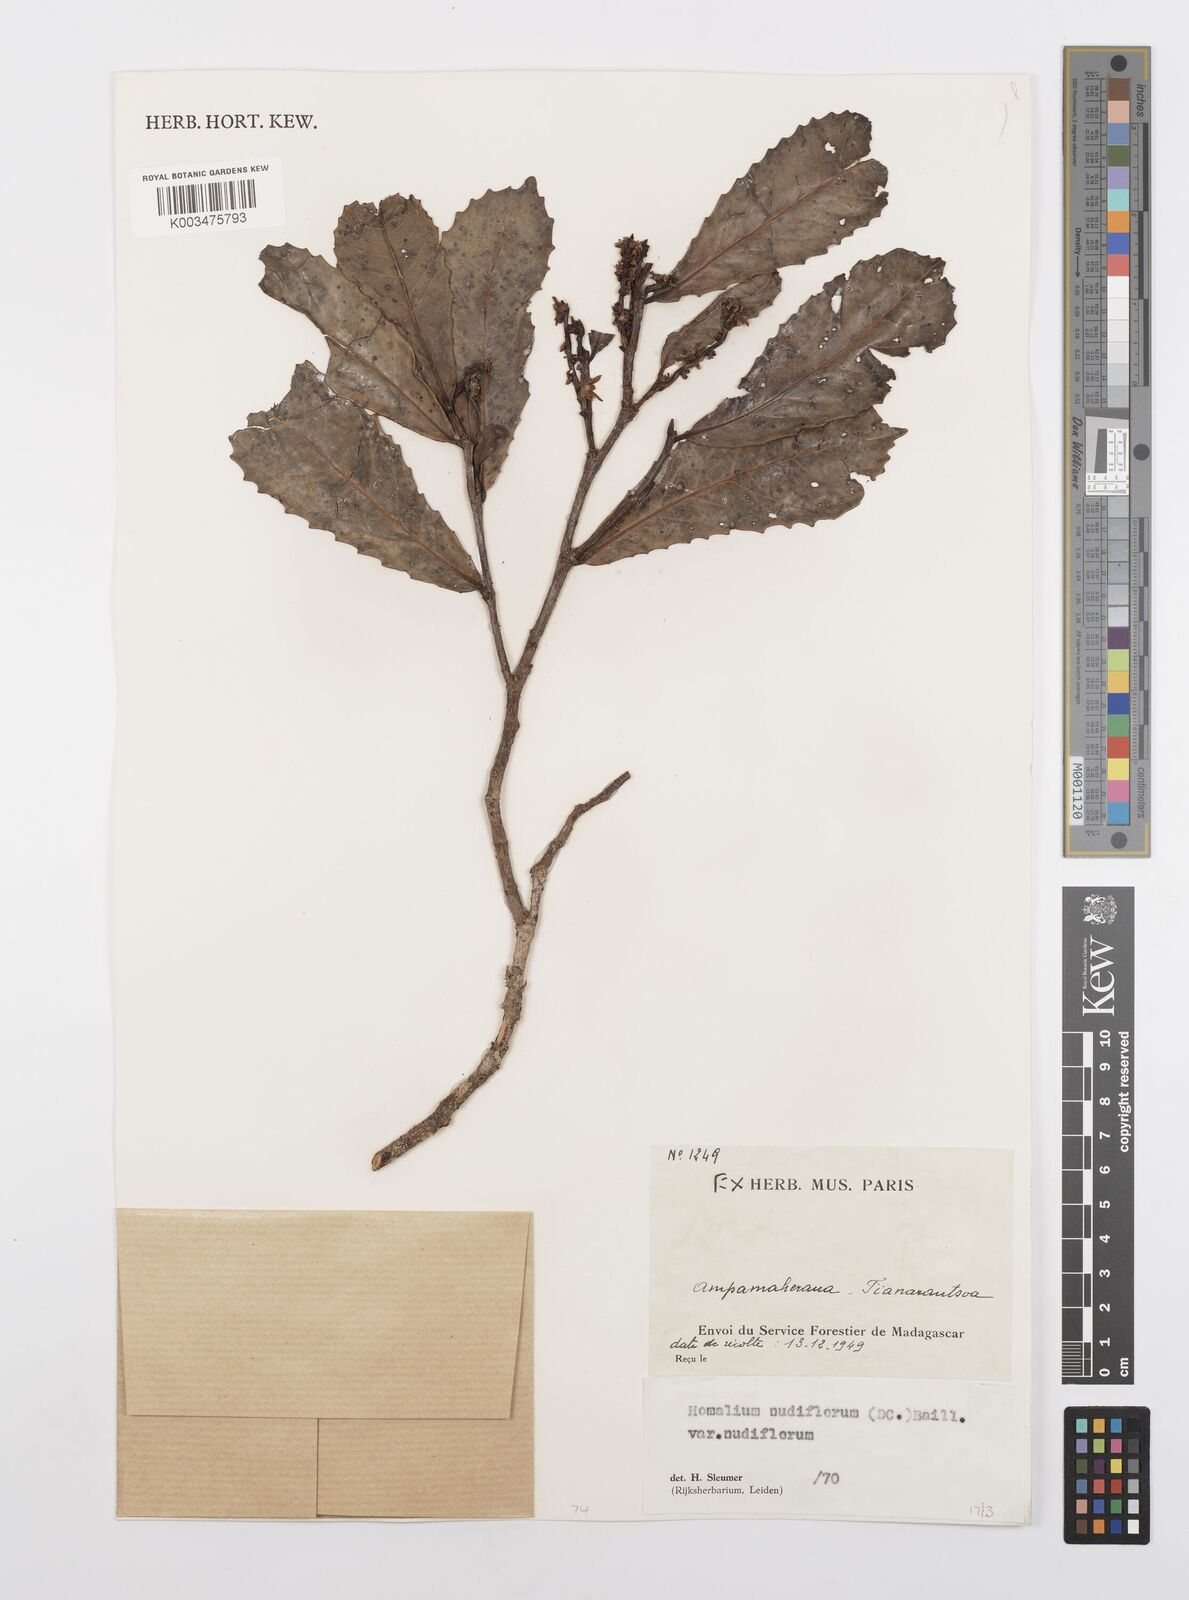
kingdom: Plantae
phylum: Tracheophyta
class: Magnoliopsida
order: Malpighiales
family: Salicaceae
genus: Homalium
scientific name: Homalium nudiflorum
